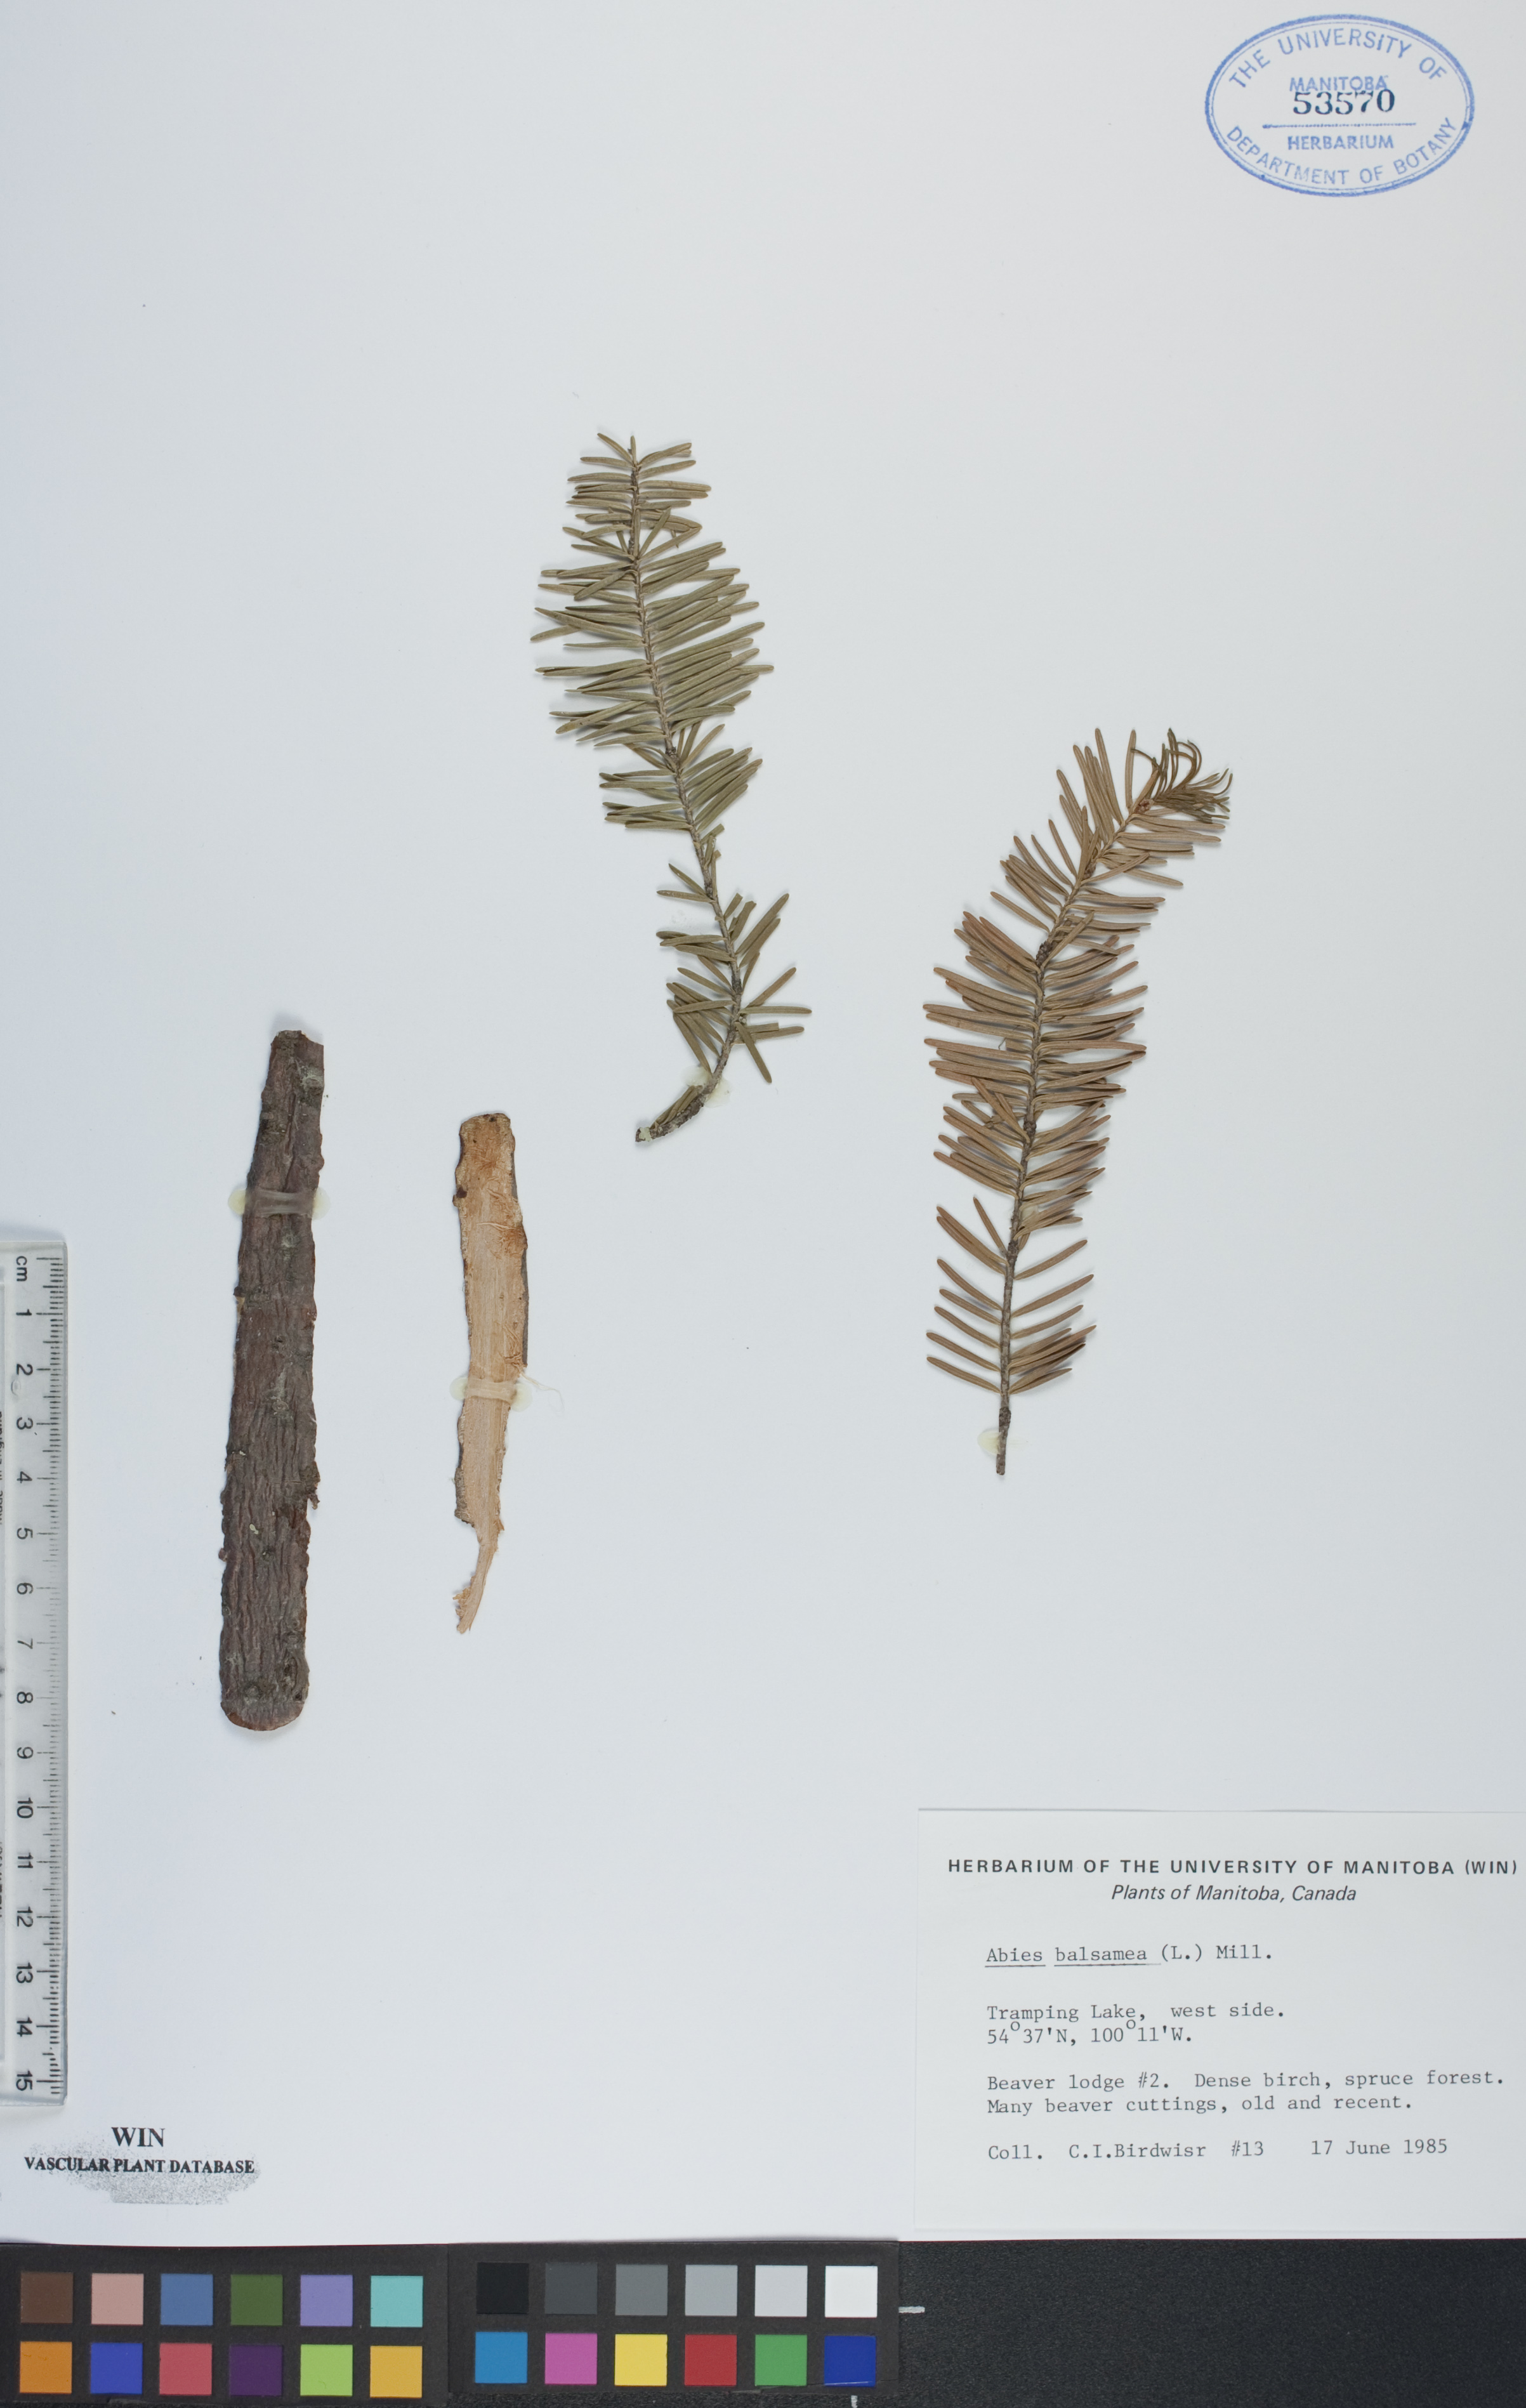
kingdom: Plantae
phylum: Tracheophyta
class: Pinopsida
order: Pinales
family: Pinaceae
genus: Abies
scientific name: Abies balsamea
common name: Balsam fir
